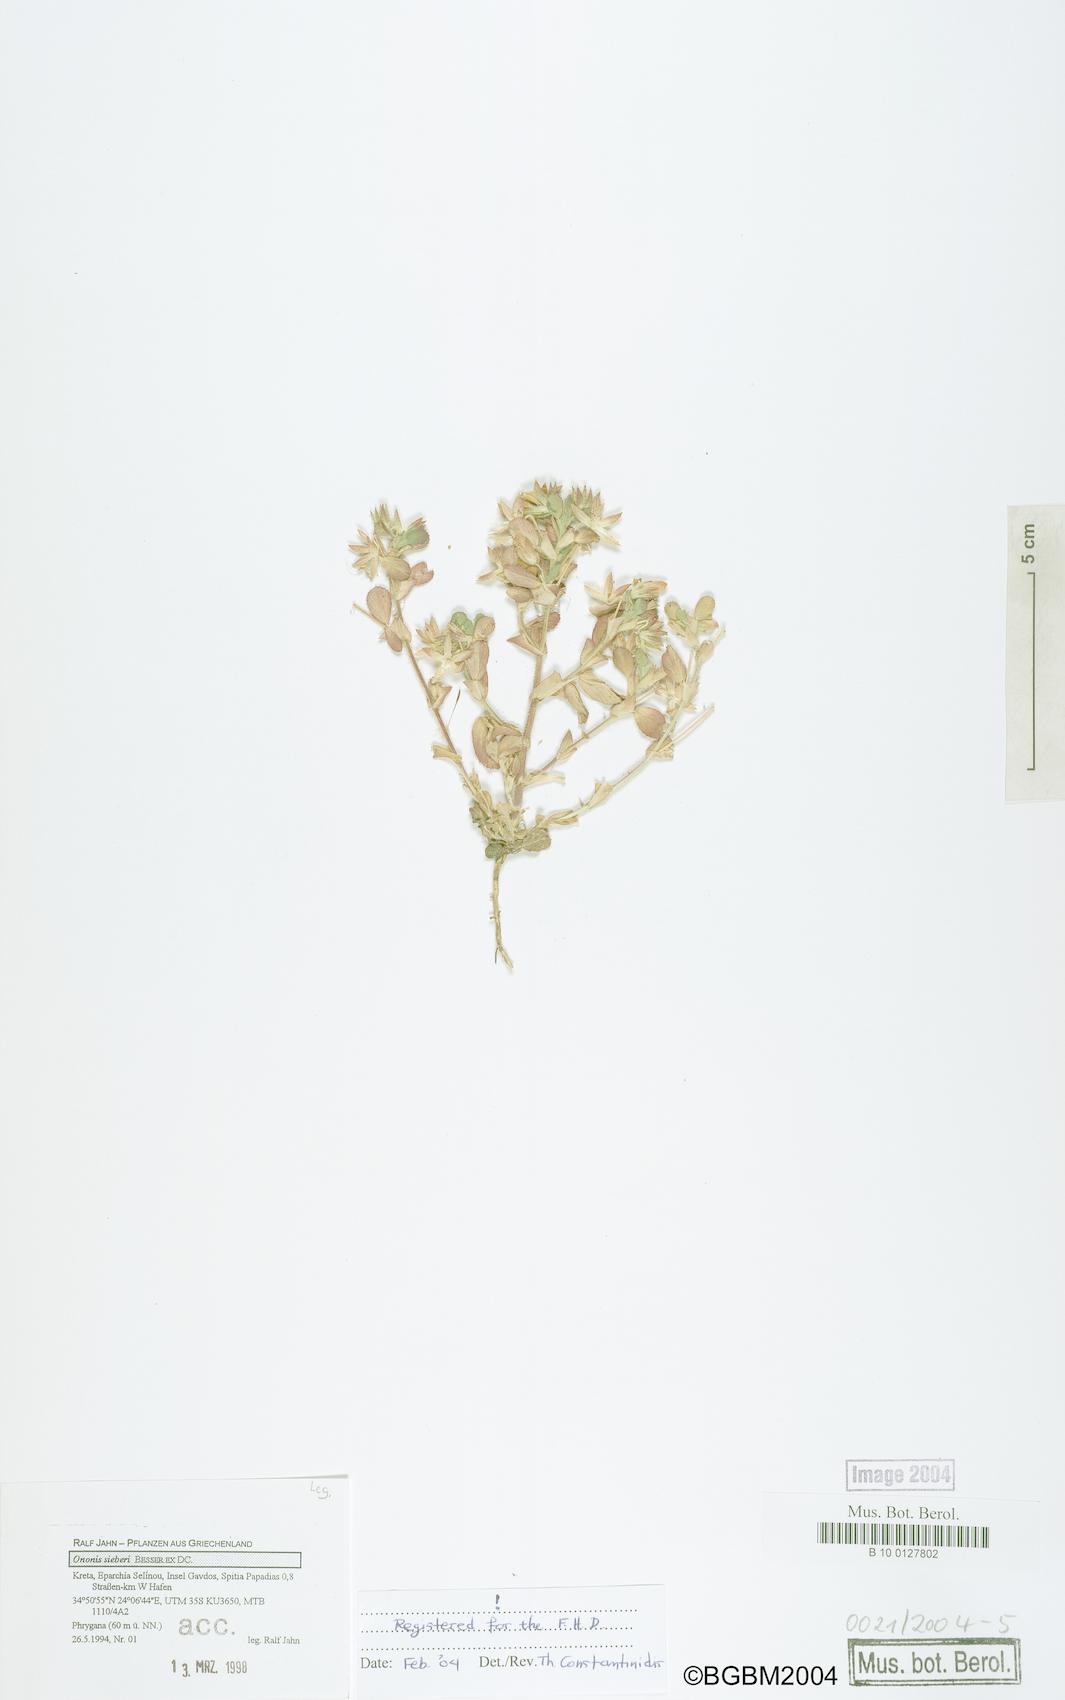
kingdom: Plantae
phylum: Tracheophyta
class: Magnoliopsida
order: Fabales
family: Fabaceae
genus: Ononis
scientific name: Ononis sieberi
